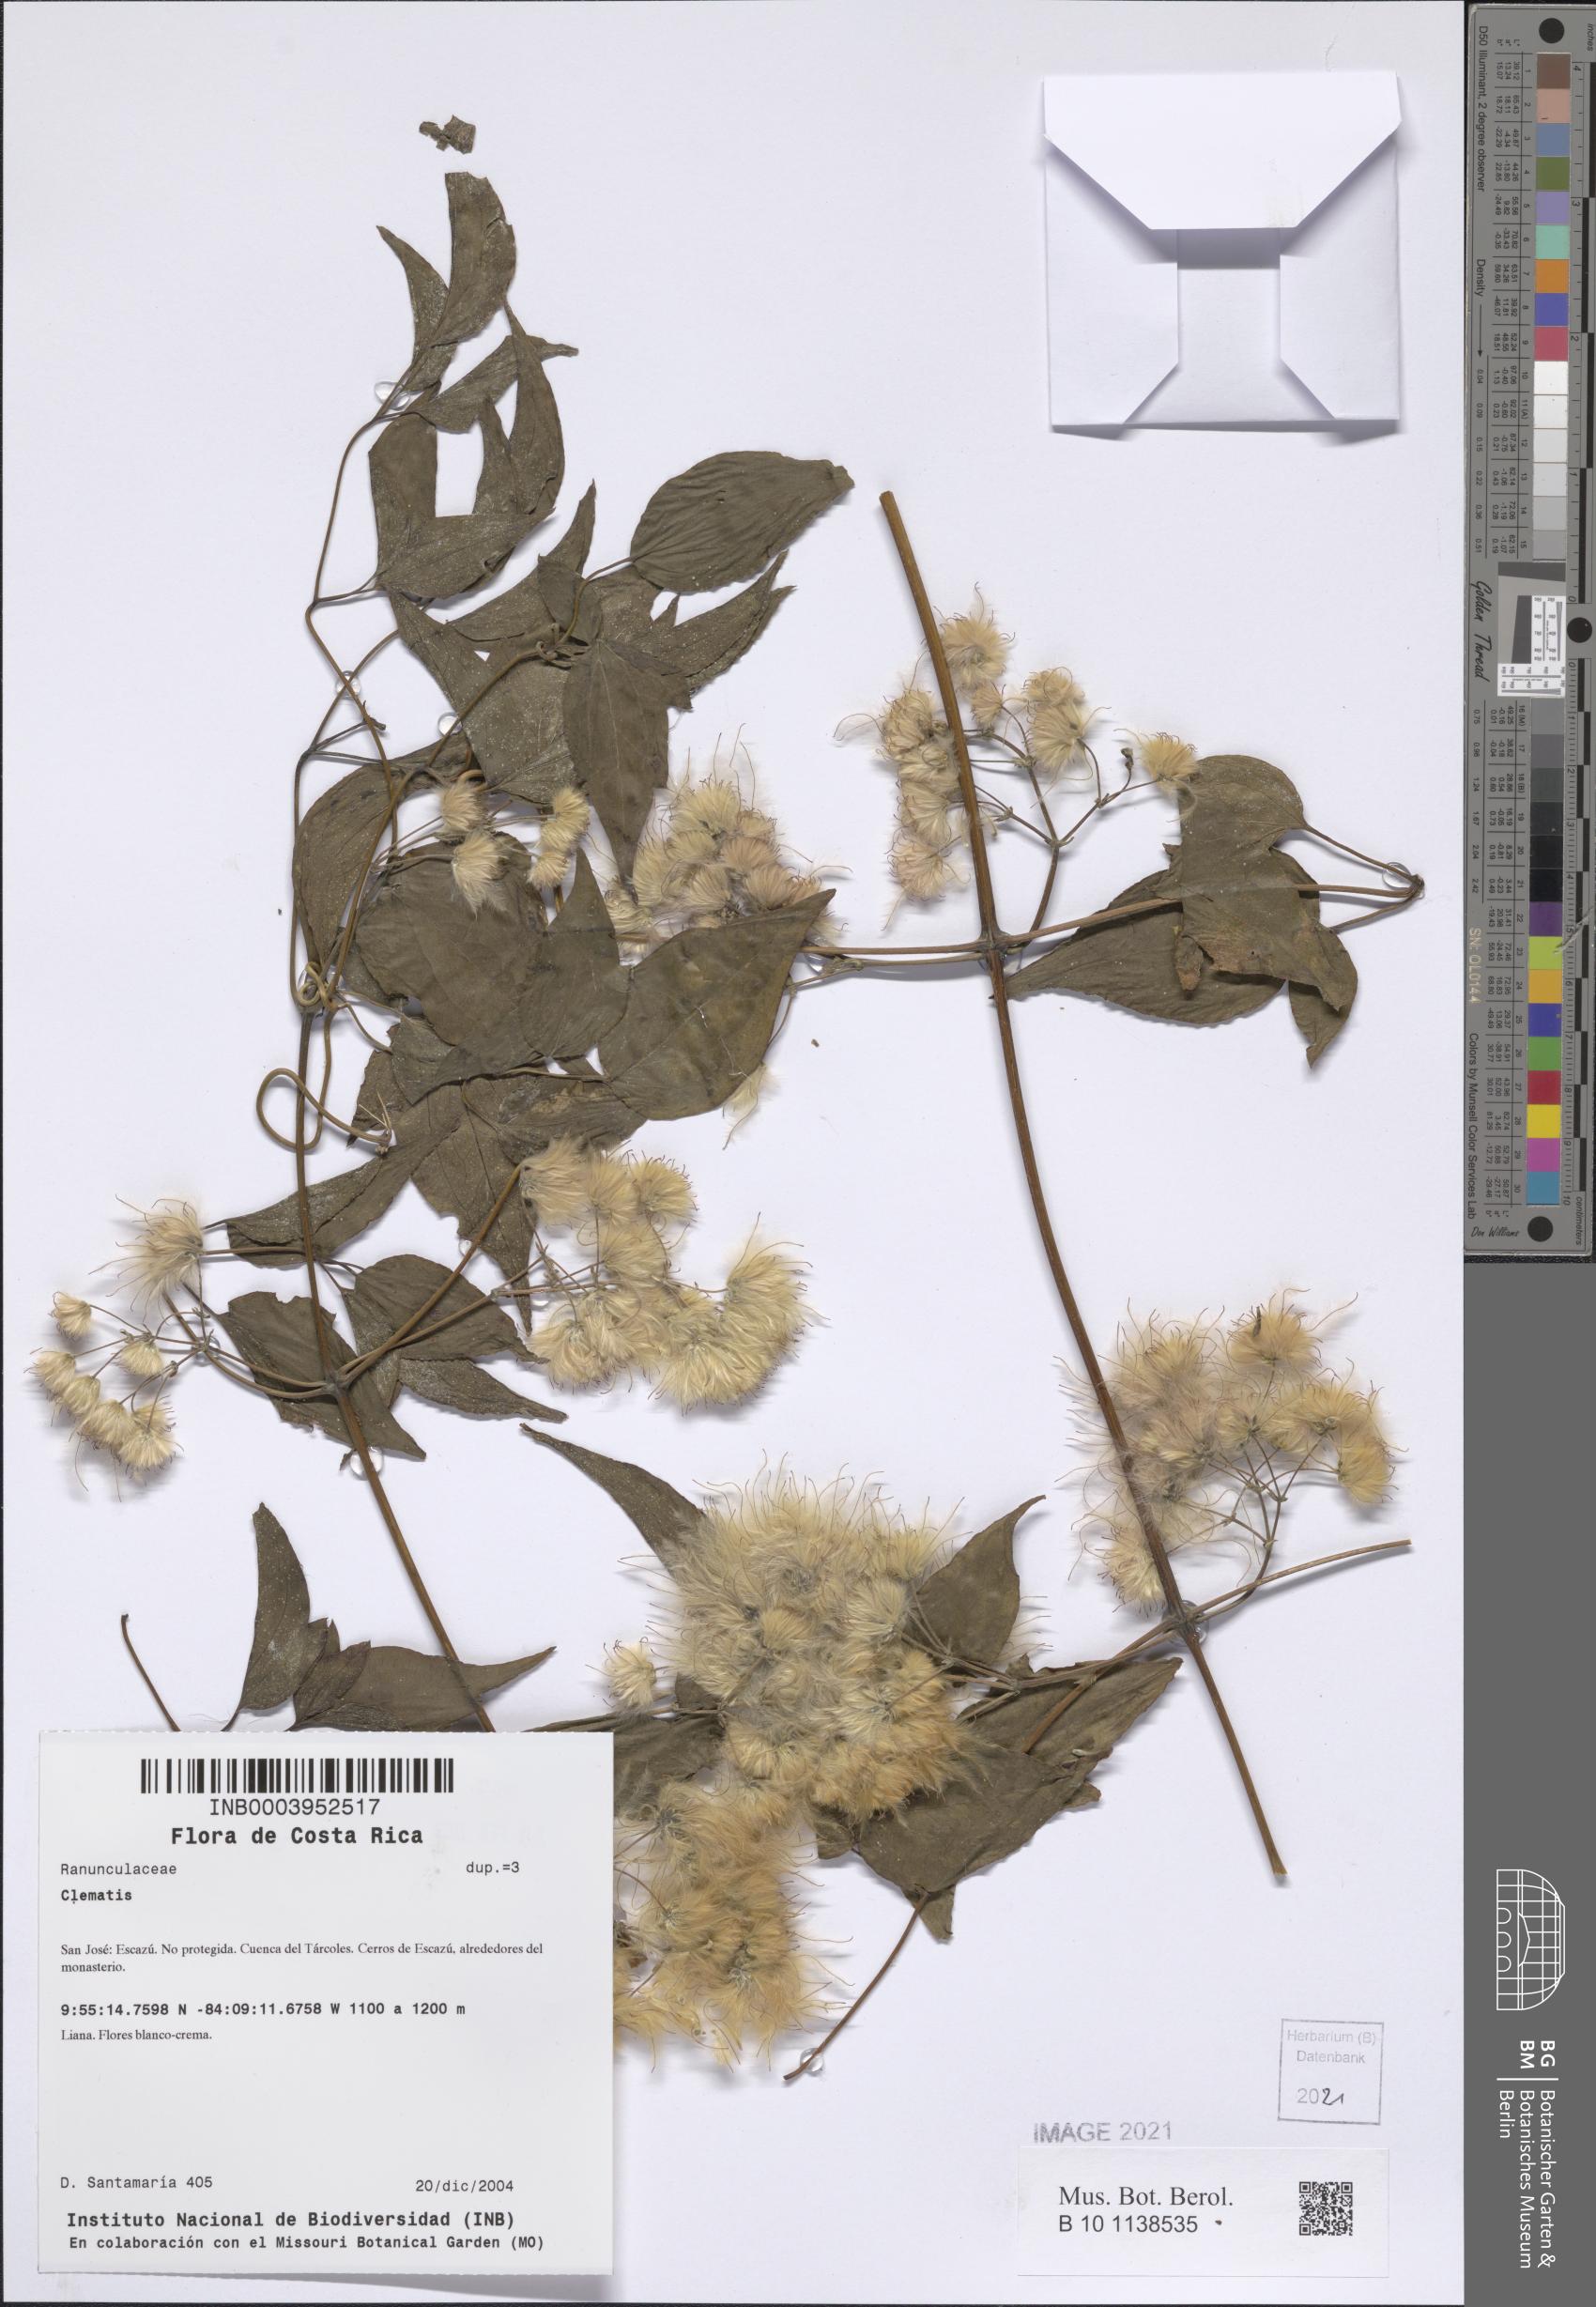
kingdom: Plantae
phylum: Tracheophyta
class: Magnoliopsida
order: Ranunculales
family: Ranunculaceae
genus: Clematis
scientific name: Clematis
